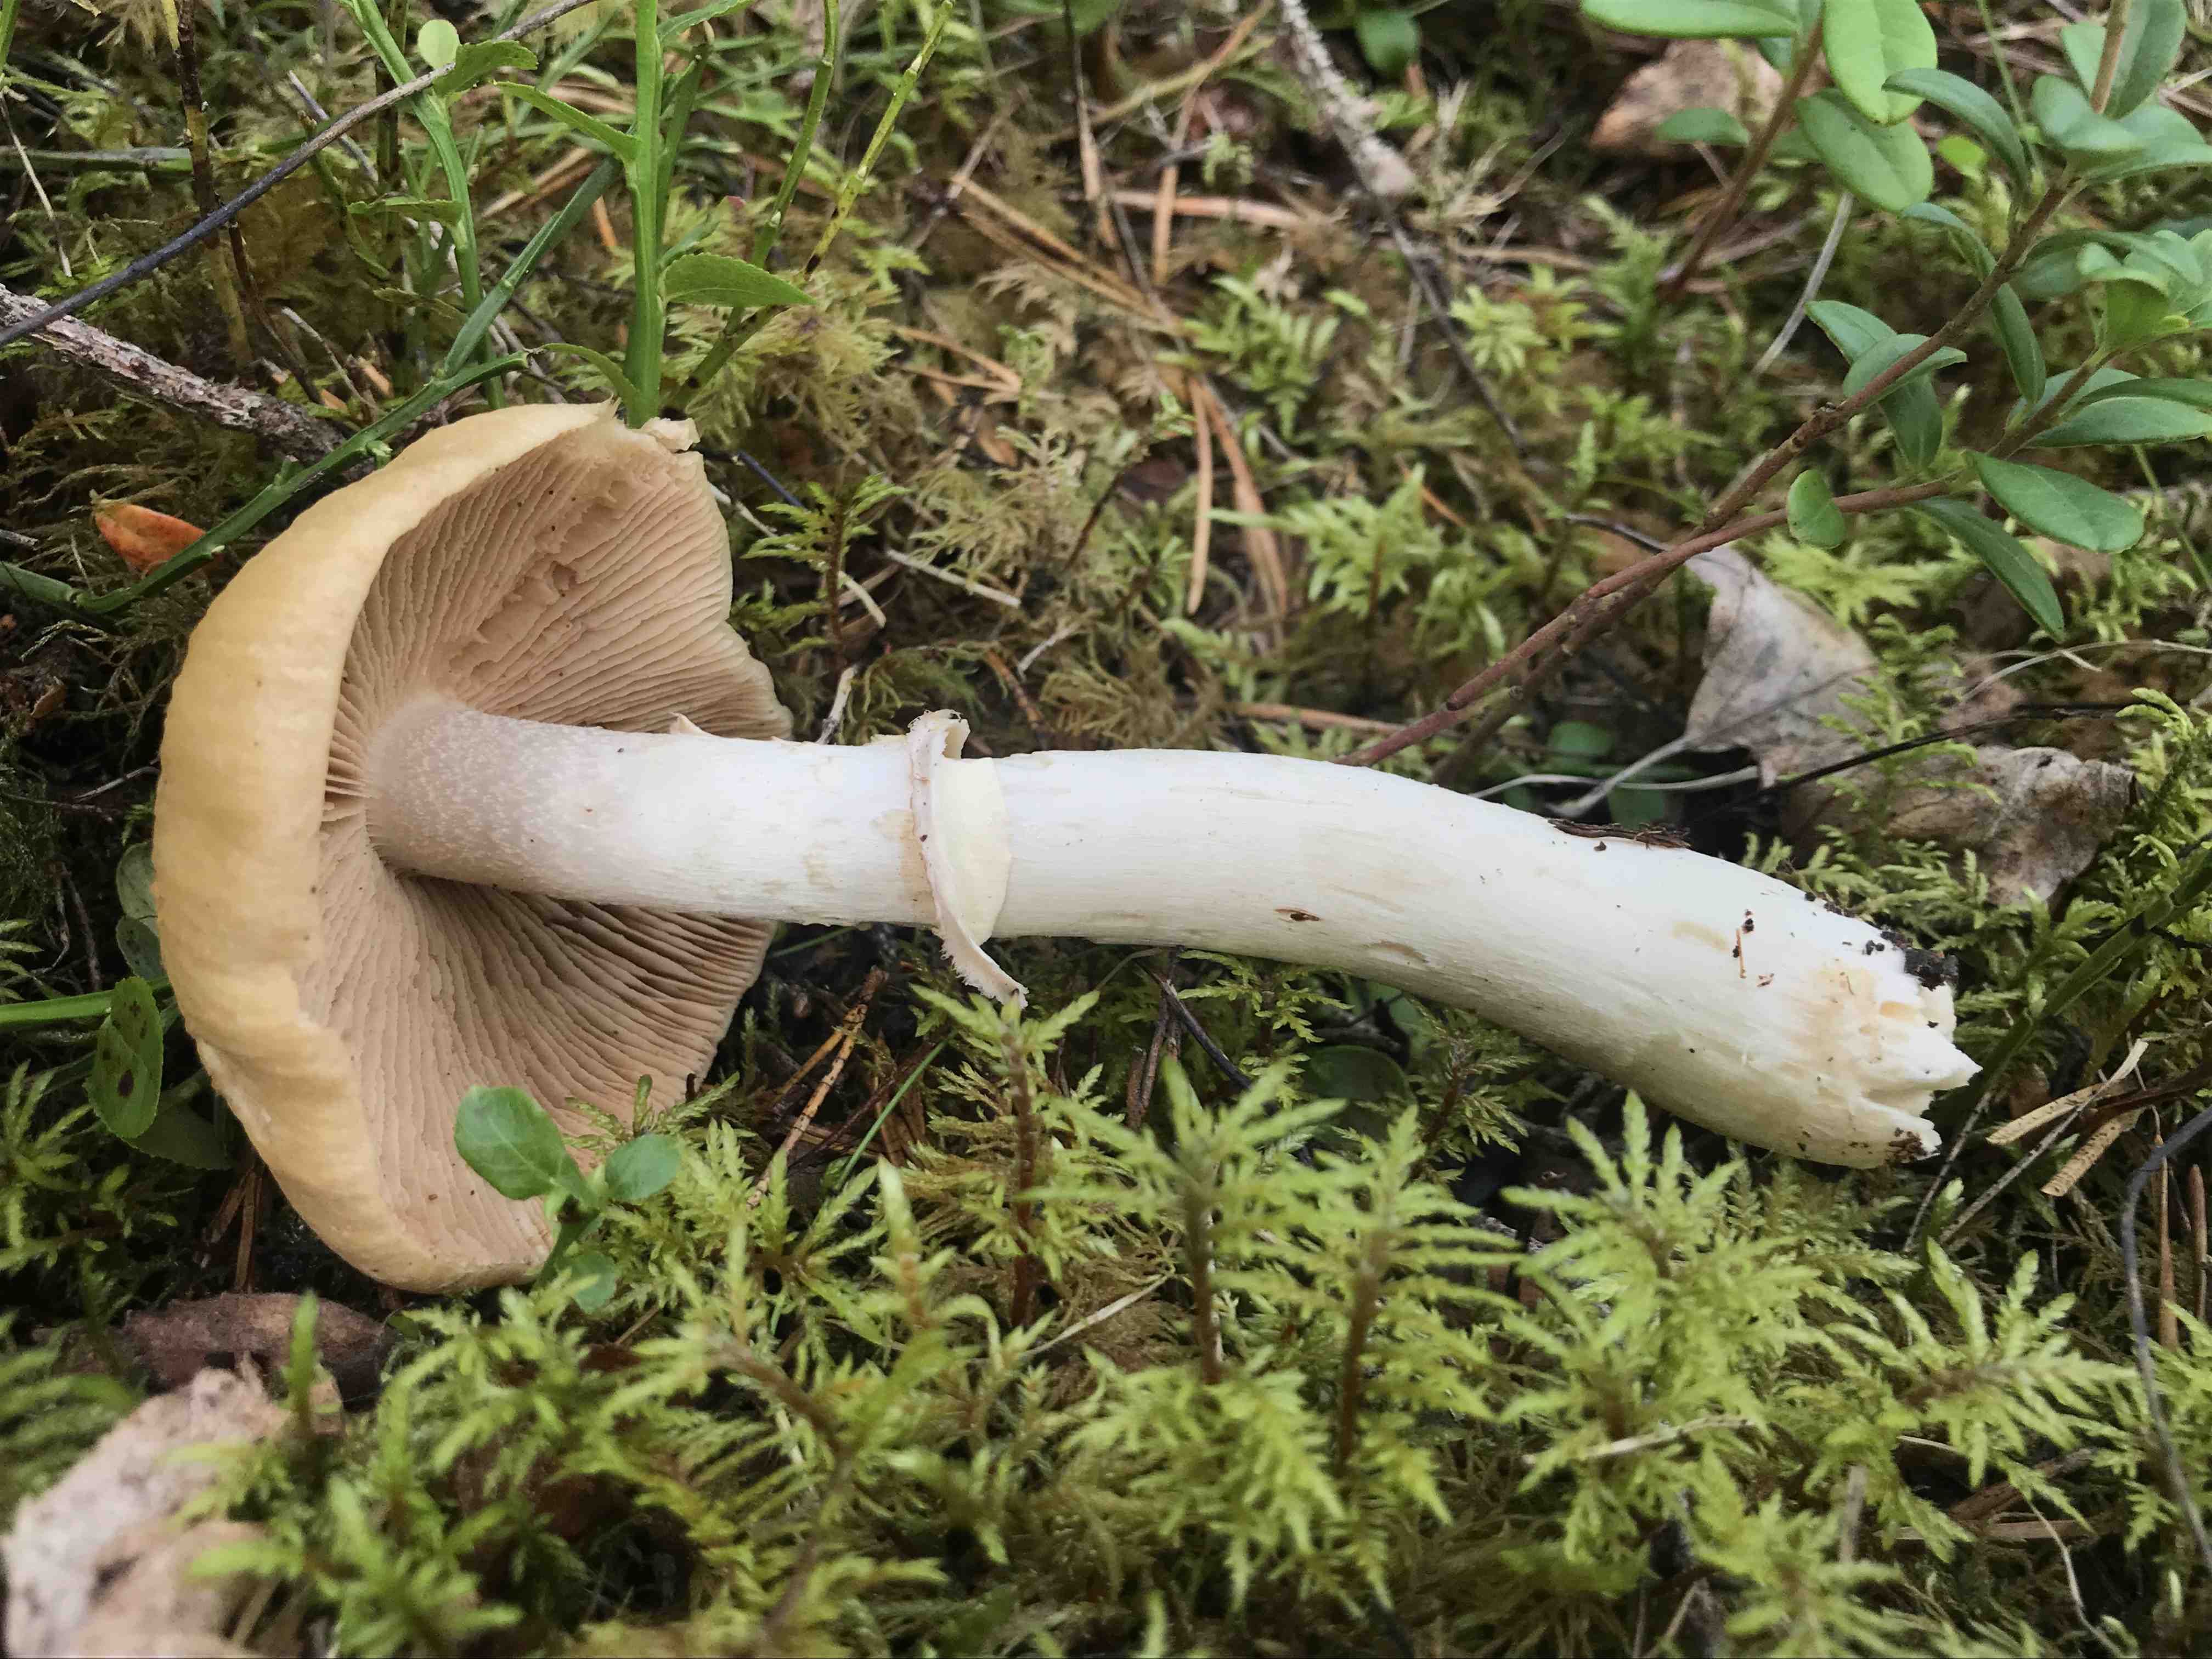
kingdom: Fungi
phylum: Basidiomycota
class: Agaricomycetes
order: Agaricales
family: Cortinariaceae
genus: Cortinarius
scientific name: Cortinarius caperatus
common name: klidhat
